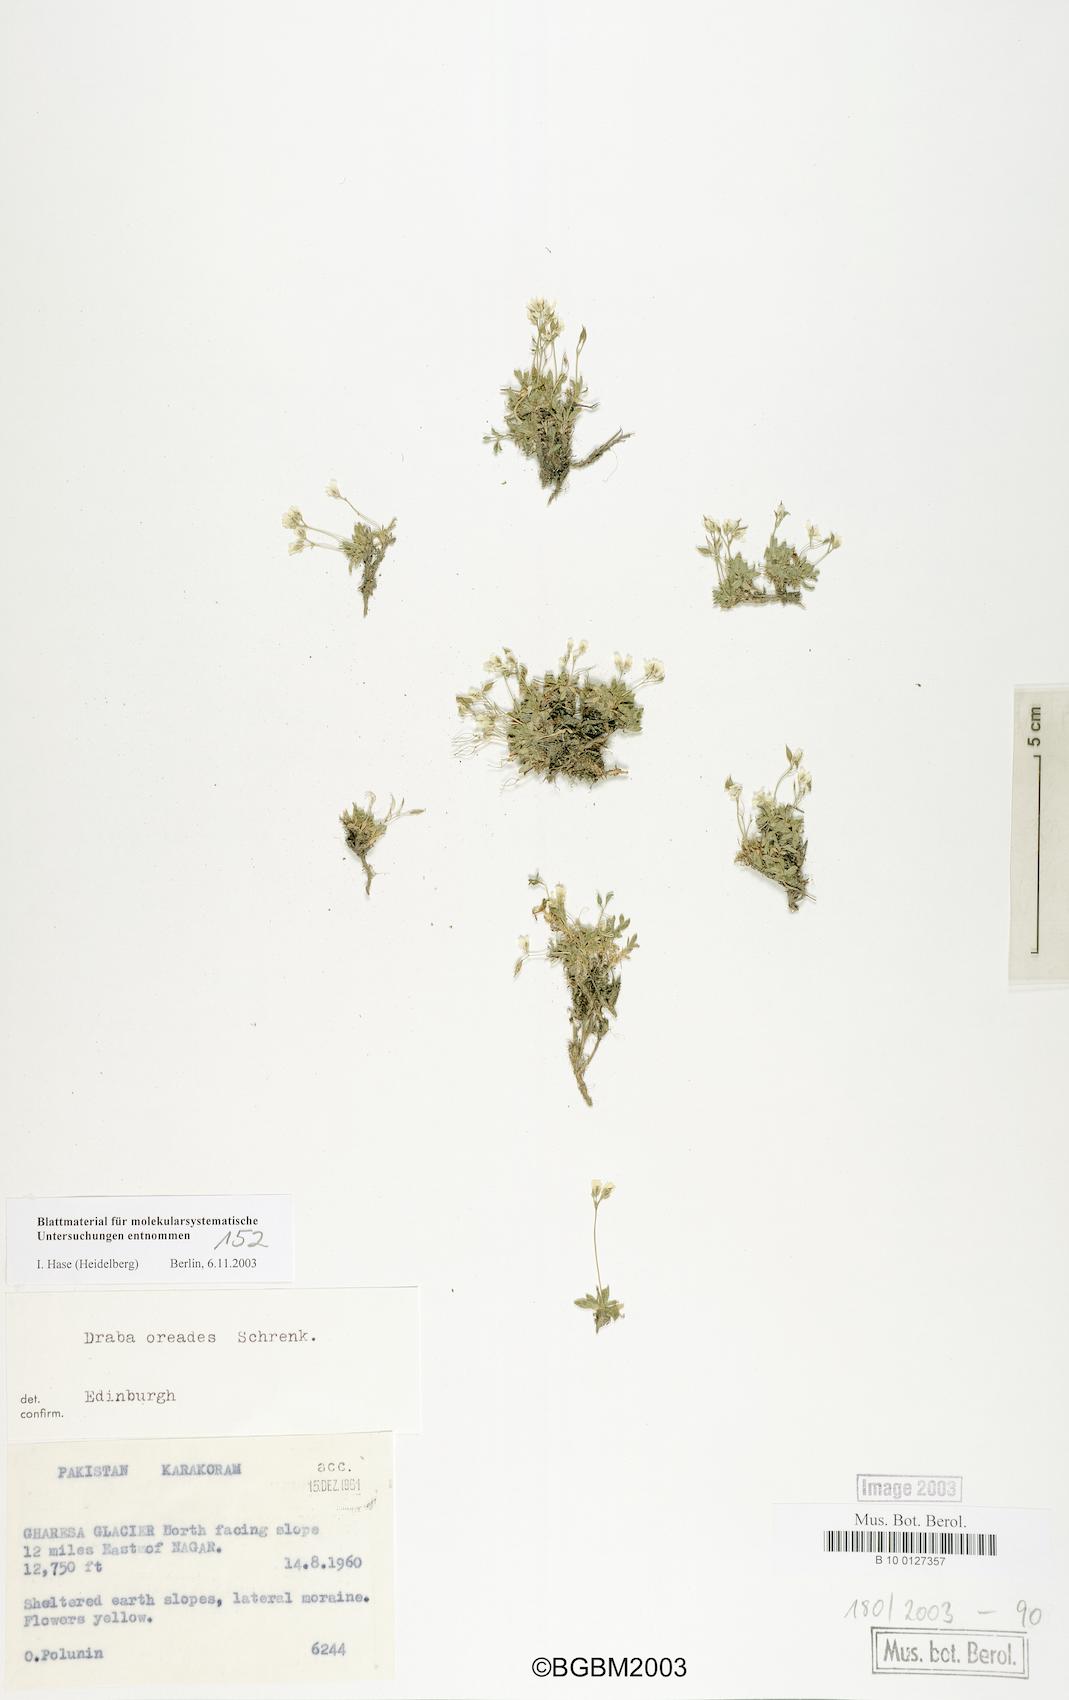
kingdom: Plantae
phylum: Tracheophyta
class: Magnoliopsida
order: Brassicales
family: Brassicaceae
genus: Draba
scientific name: Draba oreades
